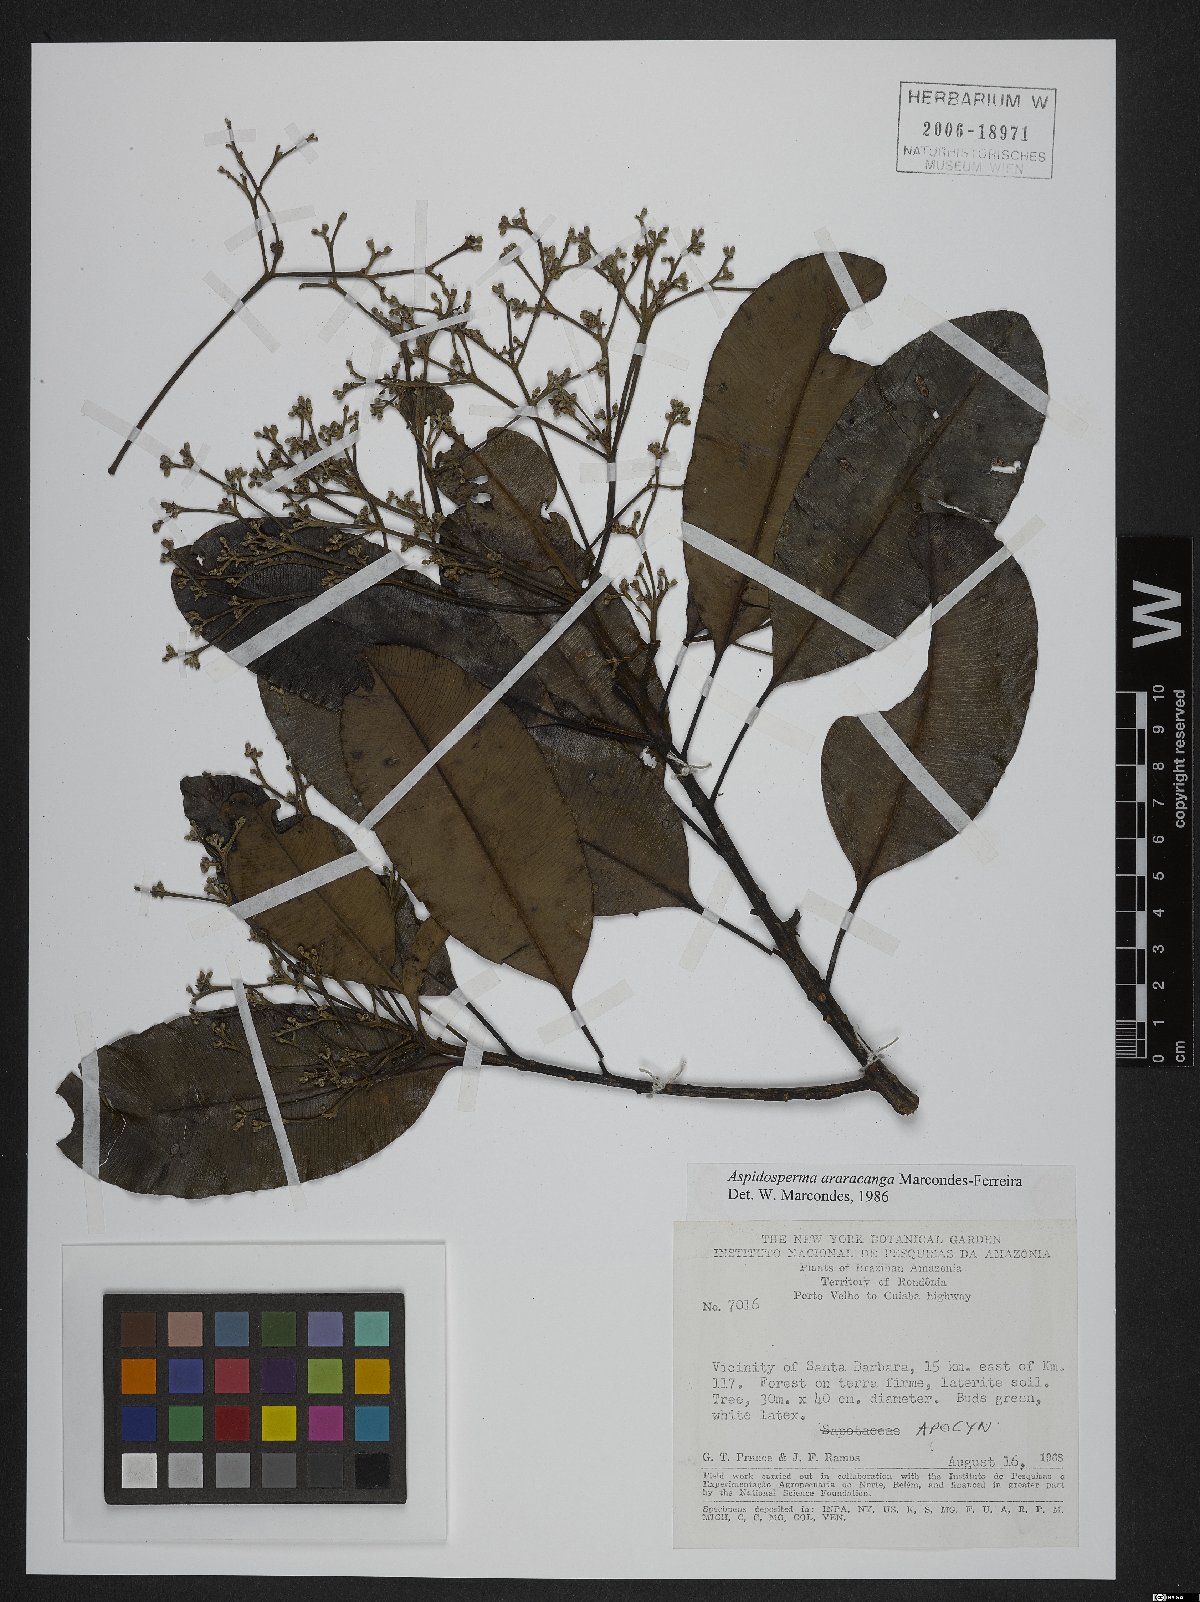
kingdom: Plantae
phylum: Tracheophyta
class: Magnoliopsida
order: Gentianales
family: Apocynaceae
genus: Aspidosperma
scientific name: Aspidosperma araracanga
